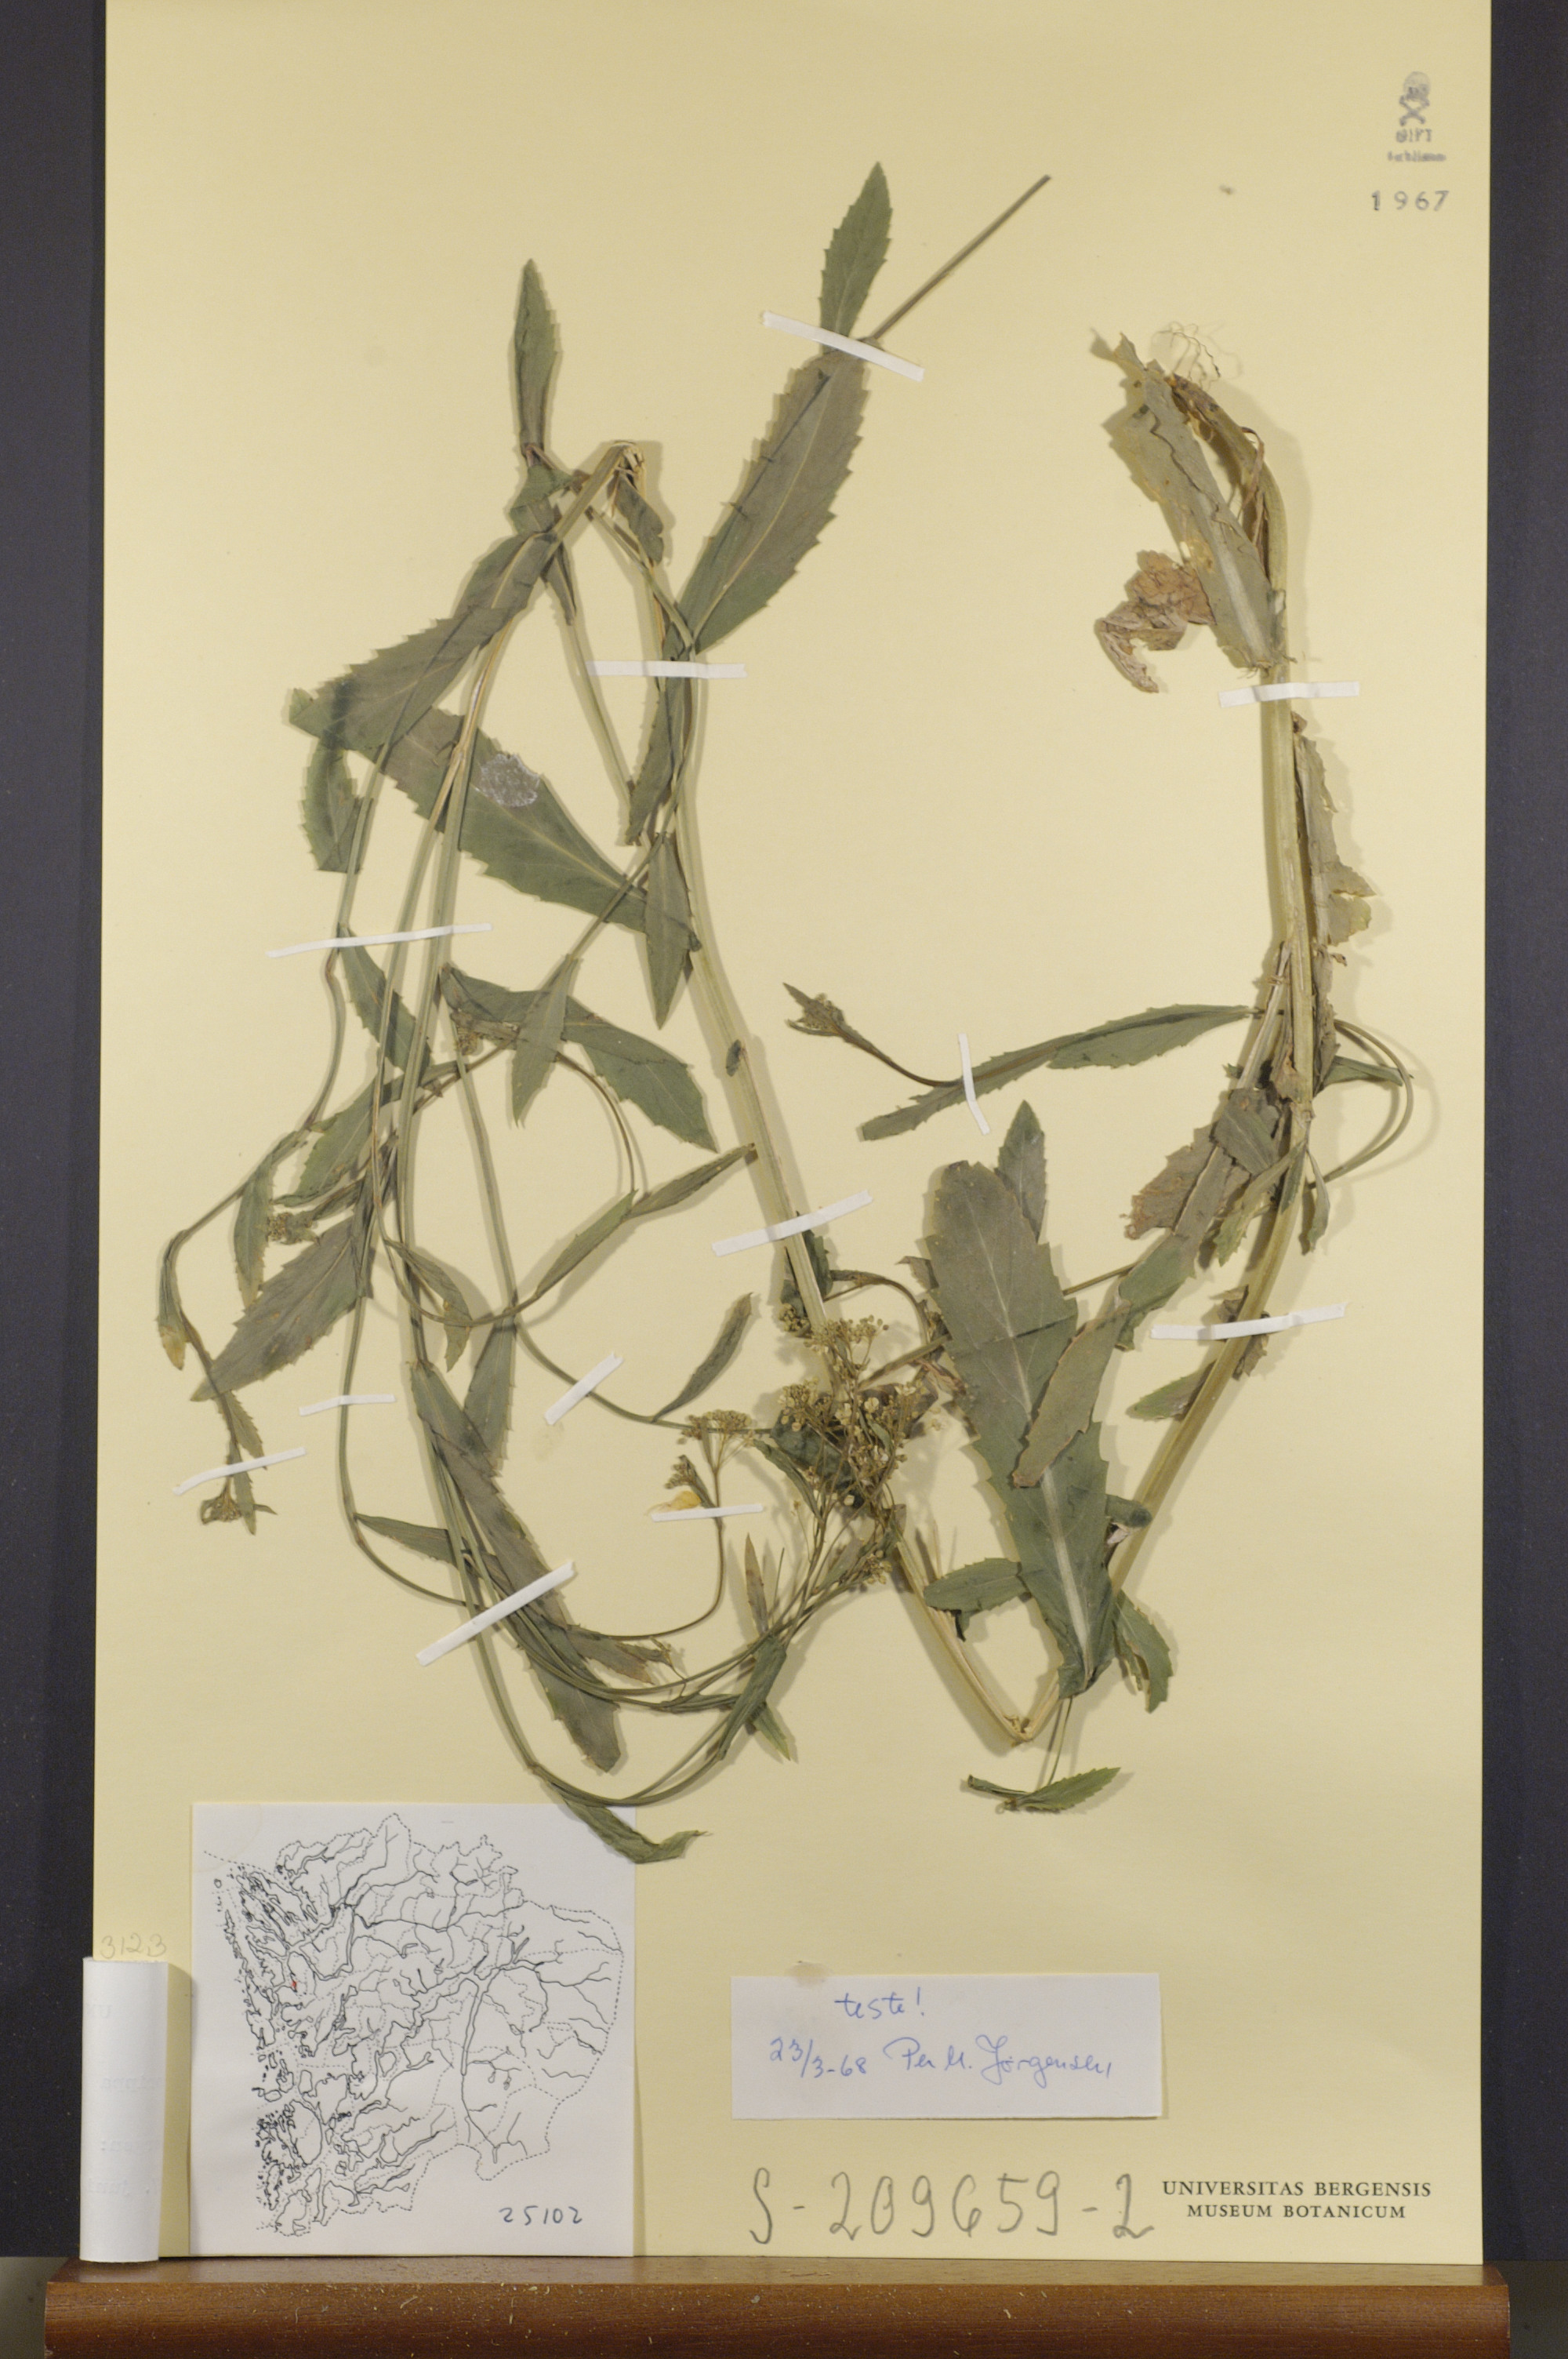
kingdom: Plantae
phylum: Tracheophyta
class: Magnoliopsida
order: Brassicales
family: Brassicaceae
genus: Rorippa
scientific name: Rorippa austriaca
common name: Austrian yellow-cress
